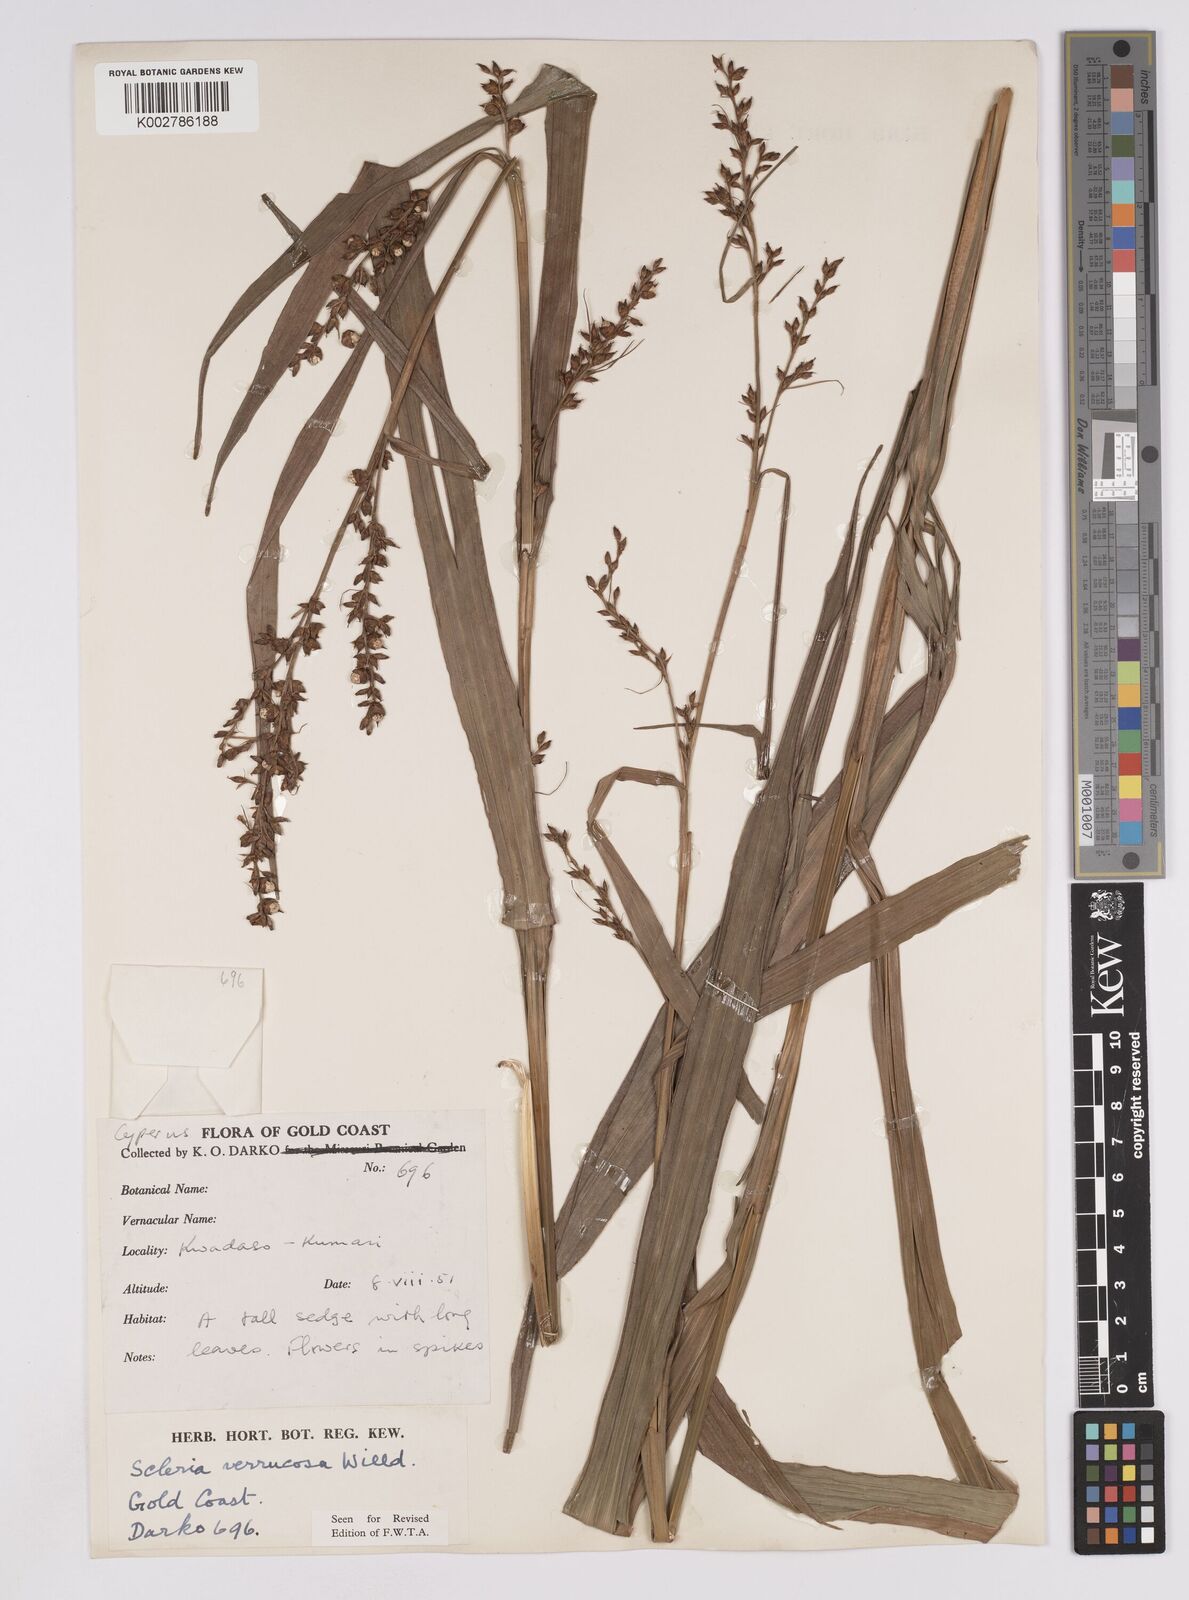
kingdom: Plantae
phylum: Tracheophyta
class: Liliopsida
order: Poales
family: Cyperaceae
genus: Scleria
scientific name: Scleria verrucosa
